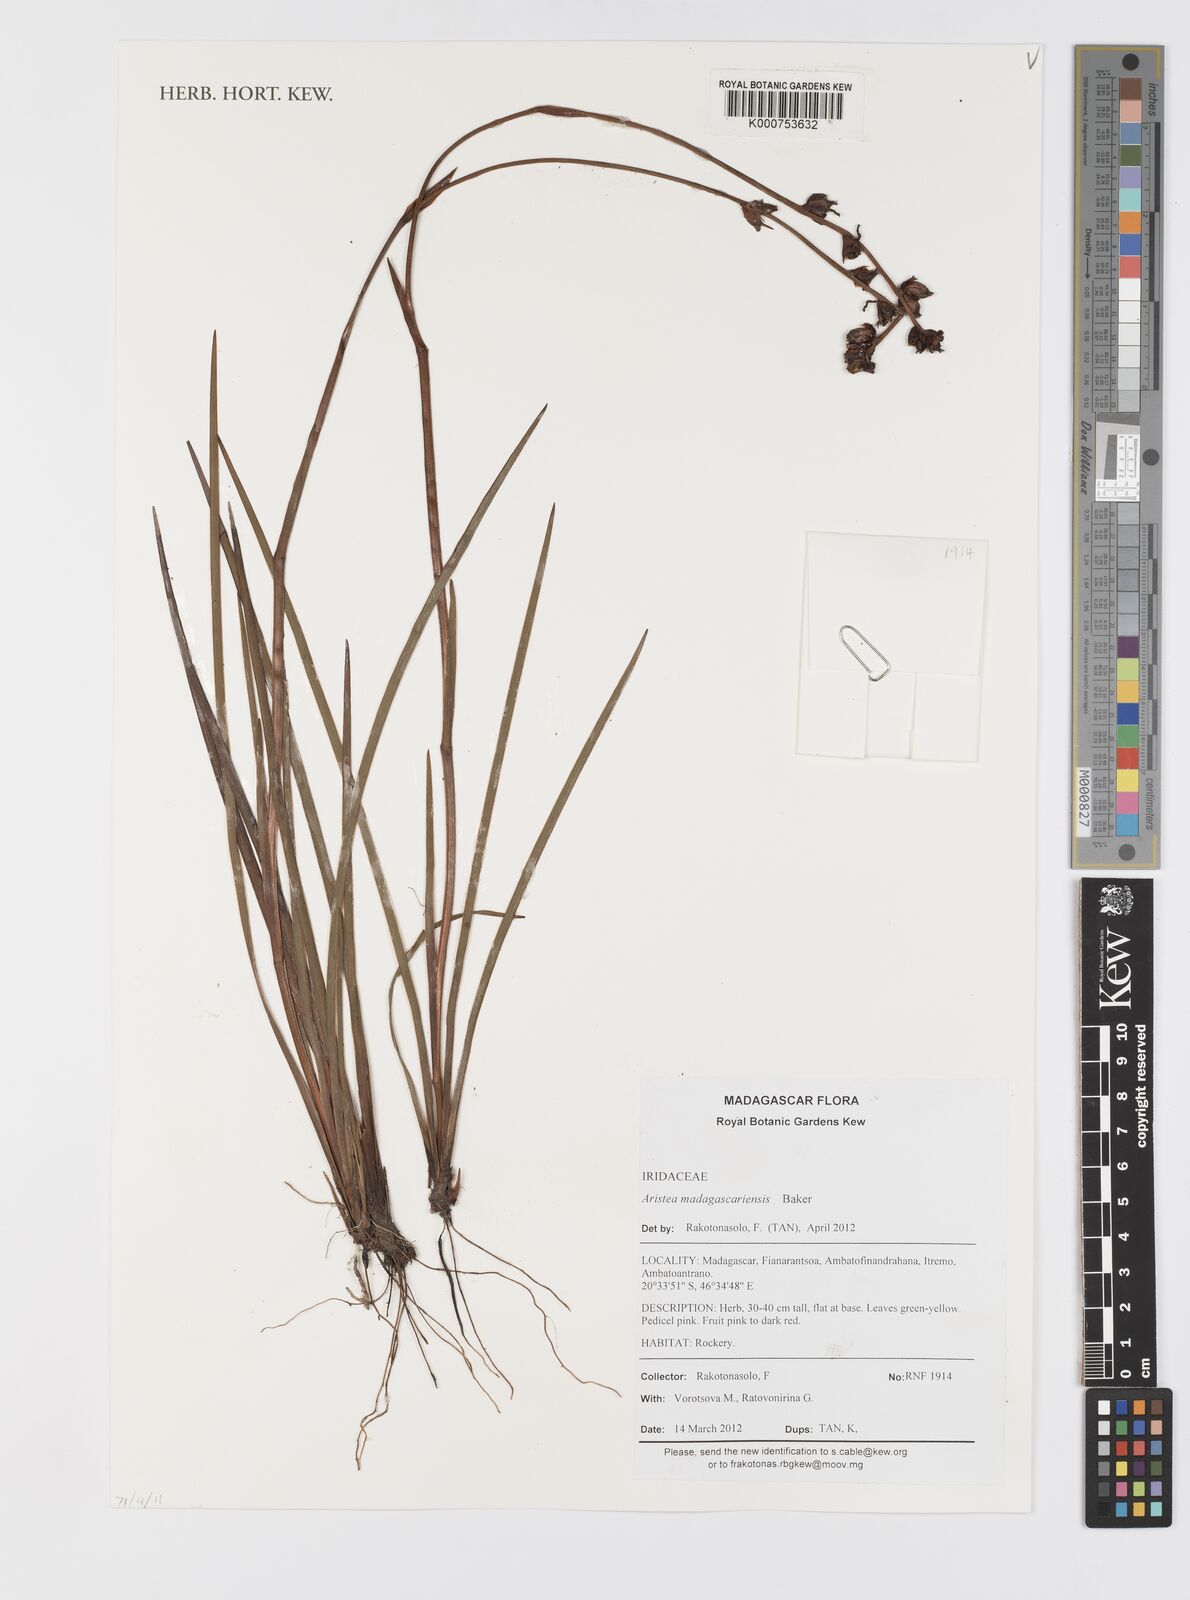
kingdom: Plantae
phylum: Tracheophyta
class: Liliopsida
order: Asparagales
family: Iridaceae
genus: Aristea
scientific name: Aristea madagascariensis
